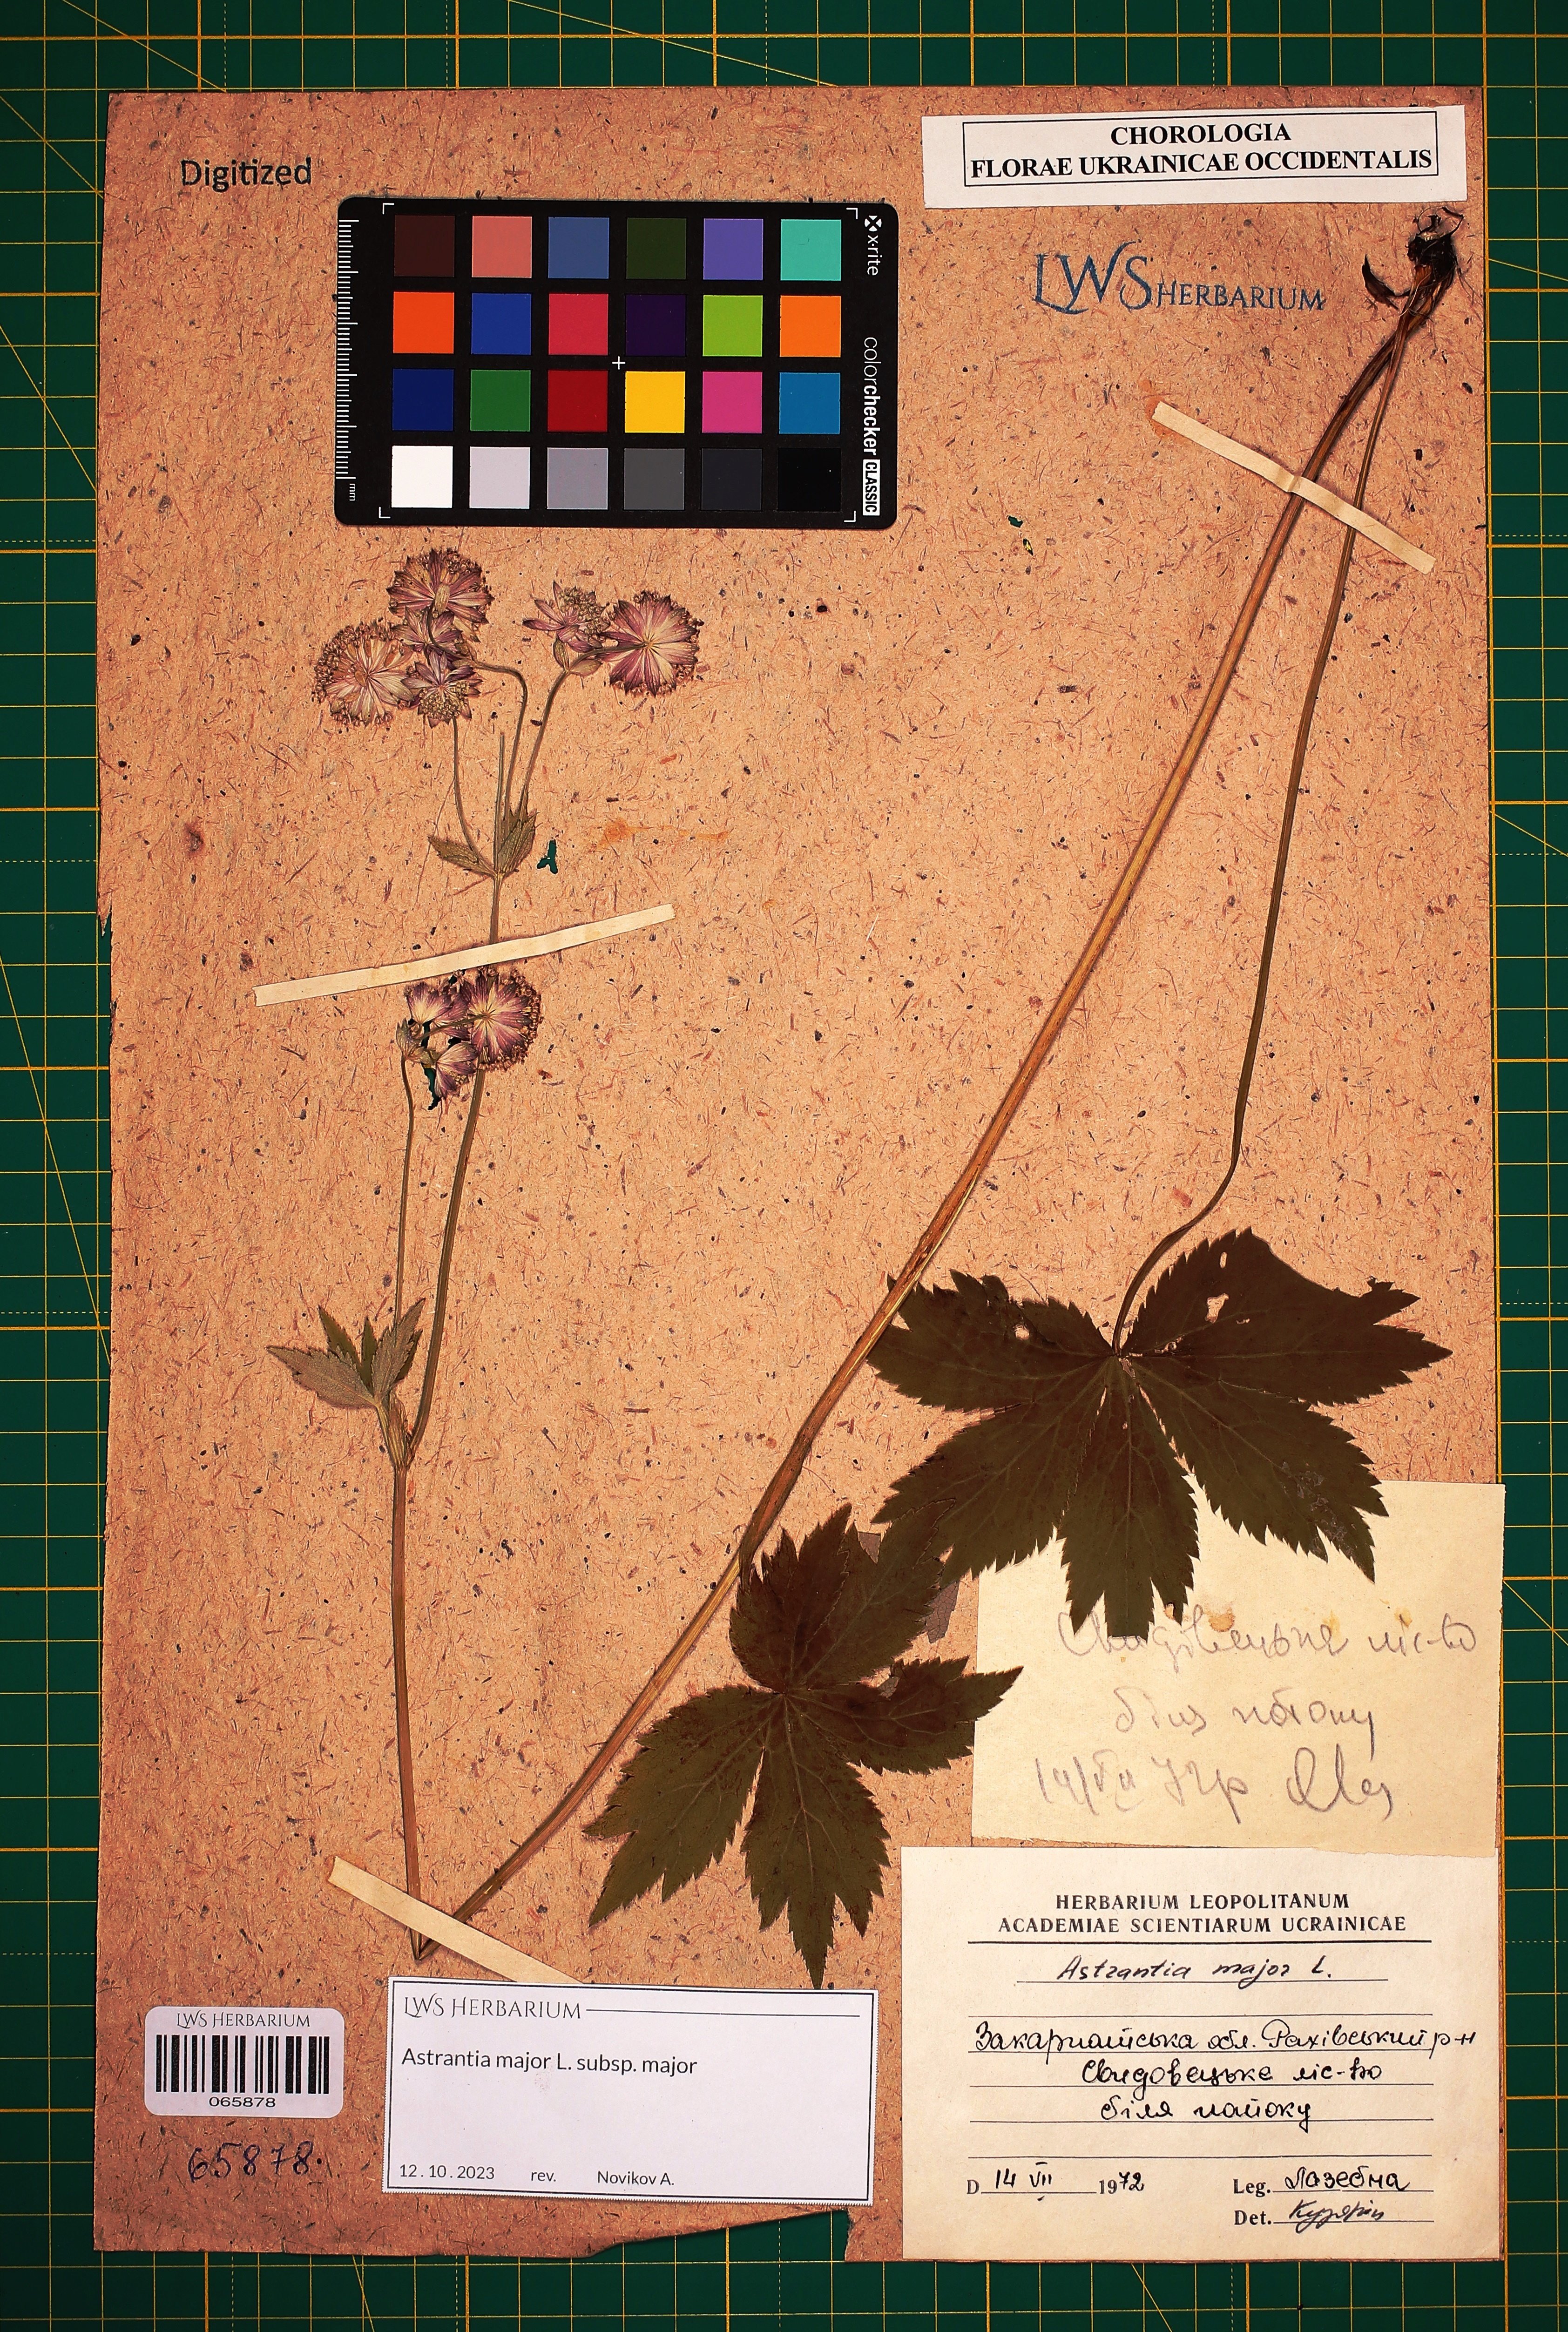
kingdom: Plantae
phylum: Tracheophyta
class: Magnoliopsida
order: Apiales
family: Apiaceae
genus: Astrantia
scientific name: Astrantia major
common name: Greater masterwort
